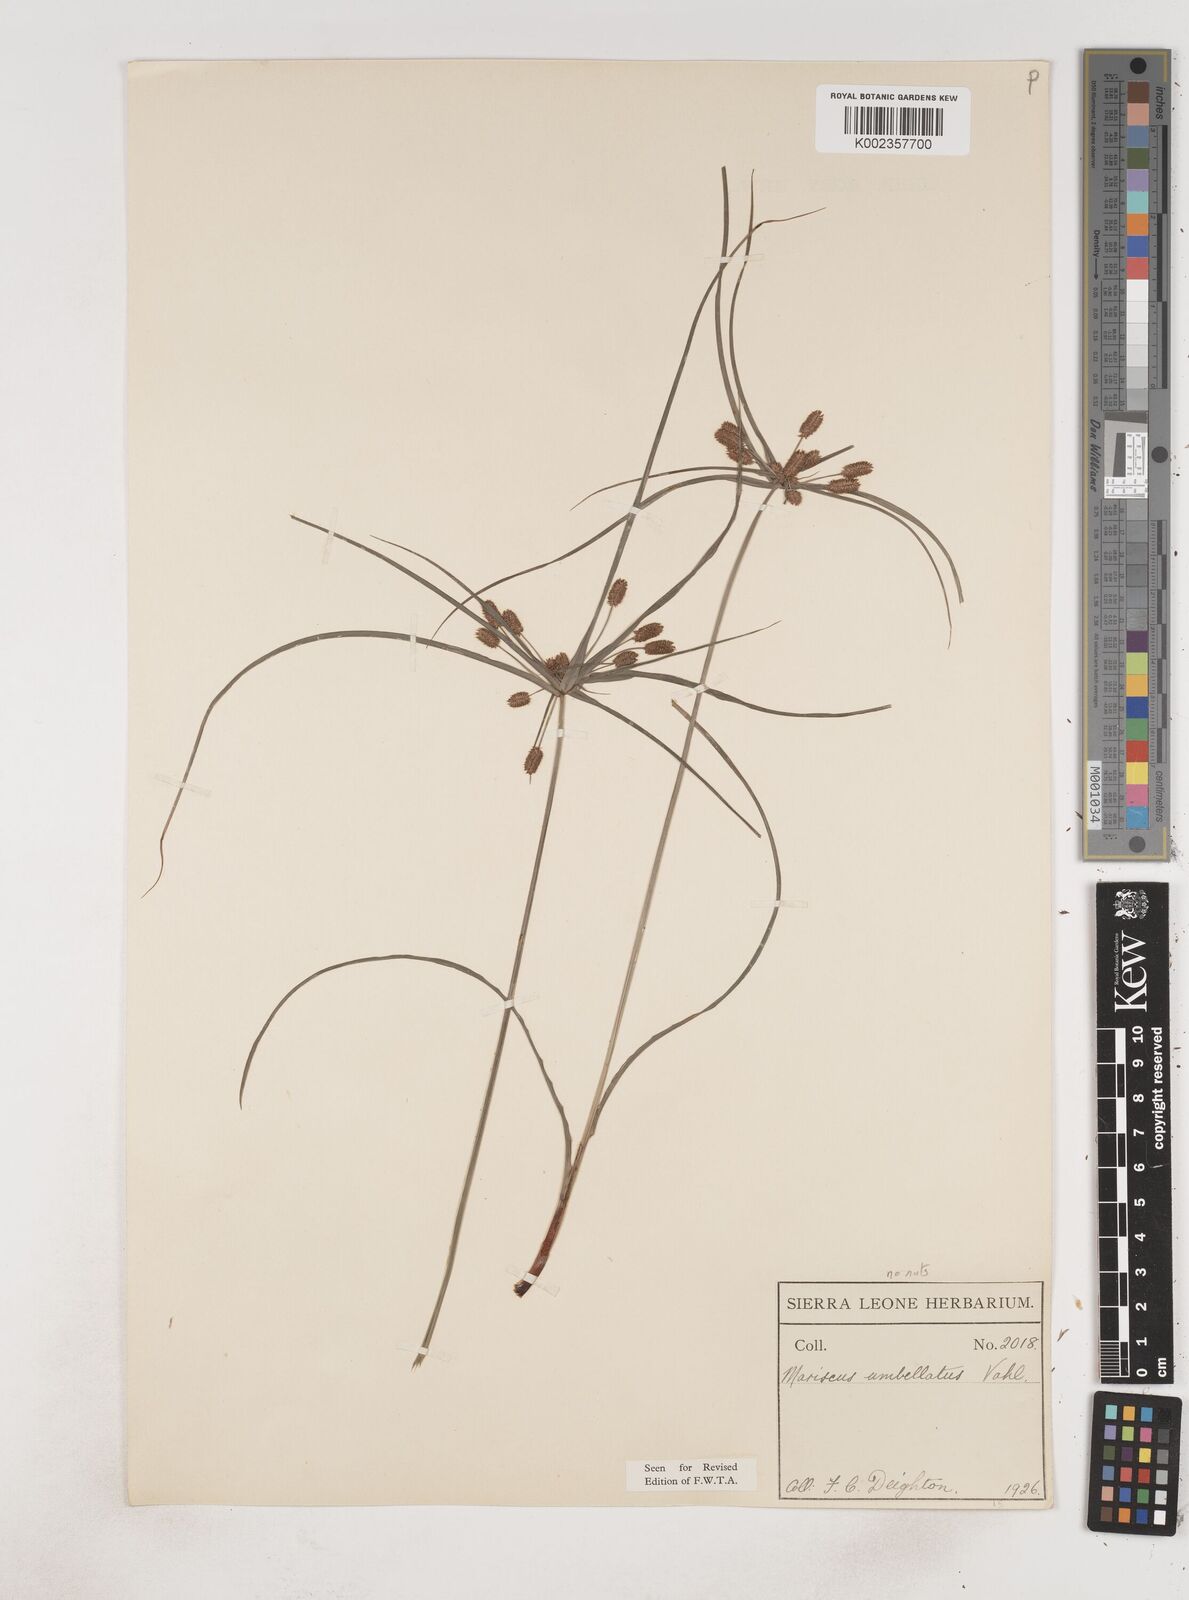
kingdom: Plantae
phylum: Tracheophyta
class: Liliopsida
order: Poales
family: Cyperaceae
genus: Cyperus
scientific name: Cyperus sublimis
